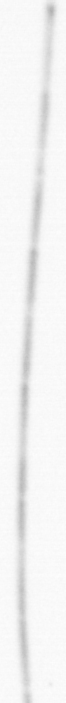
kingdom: Chromista
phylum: Ochrophyta
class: Bacillariophyceae
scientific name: Bacillariophyceae
